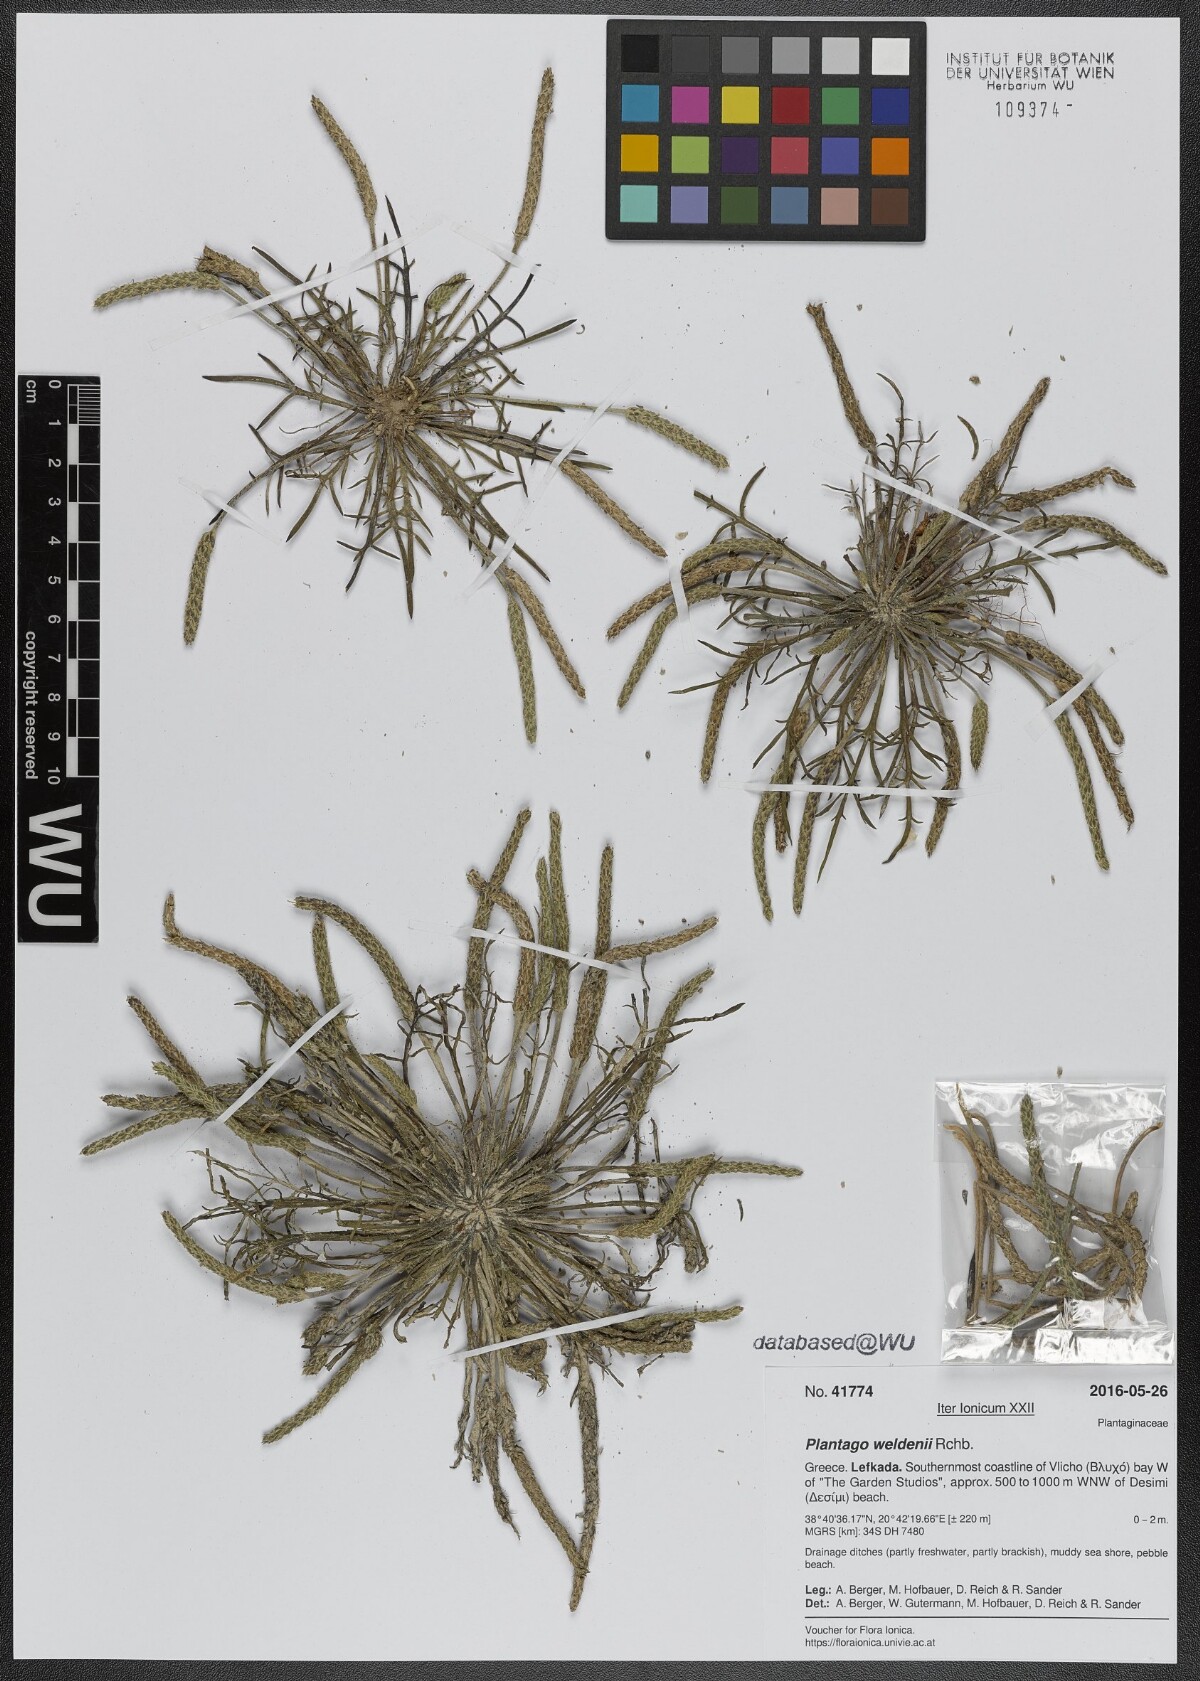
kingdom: Plantae
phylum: Tracheophyta
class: Magnoliopsida
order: Lamiales
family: Plantaginaceae
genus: Plantago
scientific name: Plantago weldenii
